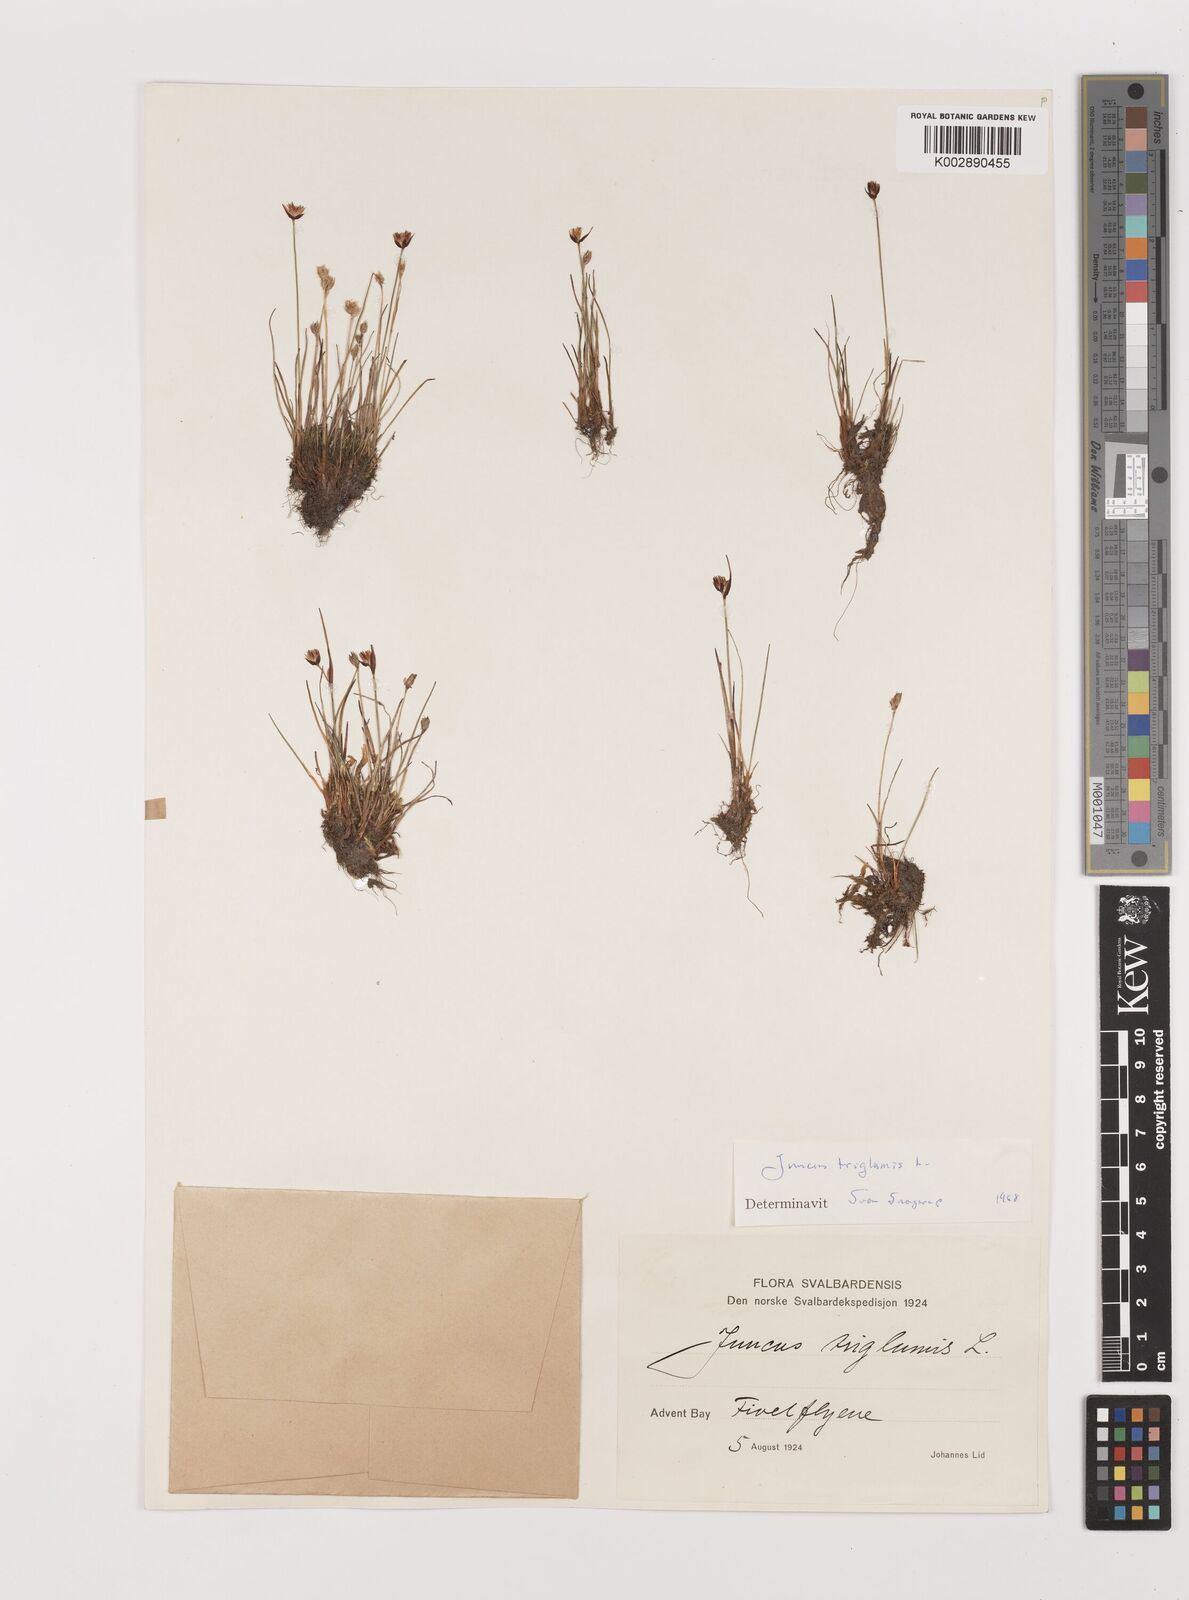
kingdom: Plantae
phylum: Tracheophyta
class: Liliopsida
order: Poales
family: Juncaceae
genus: Juncus
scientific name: Juncus triglumis
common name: Three-flowered rush
